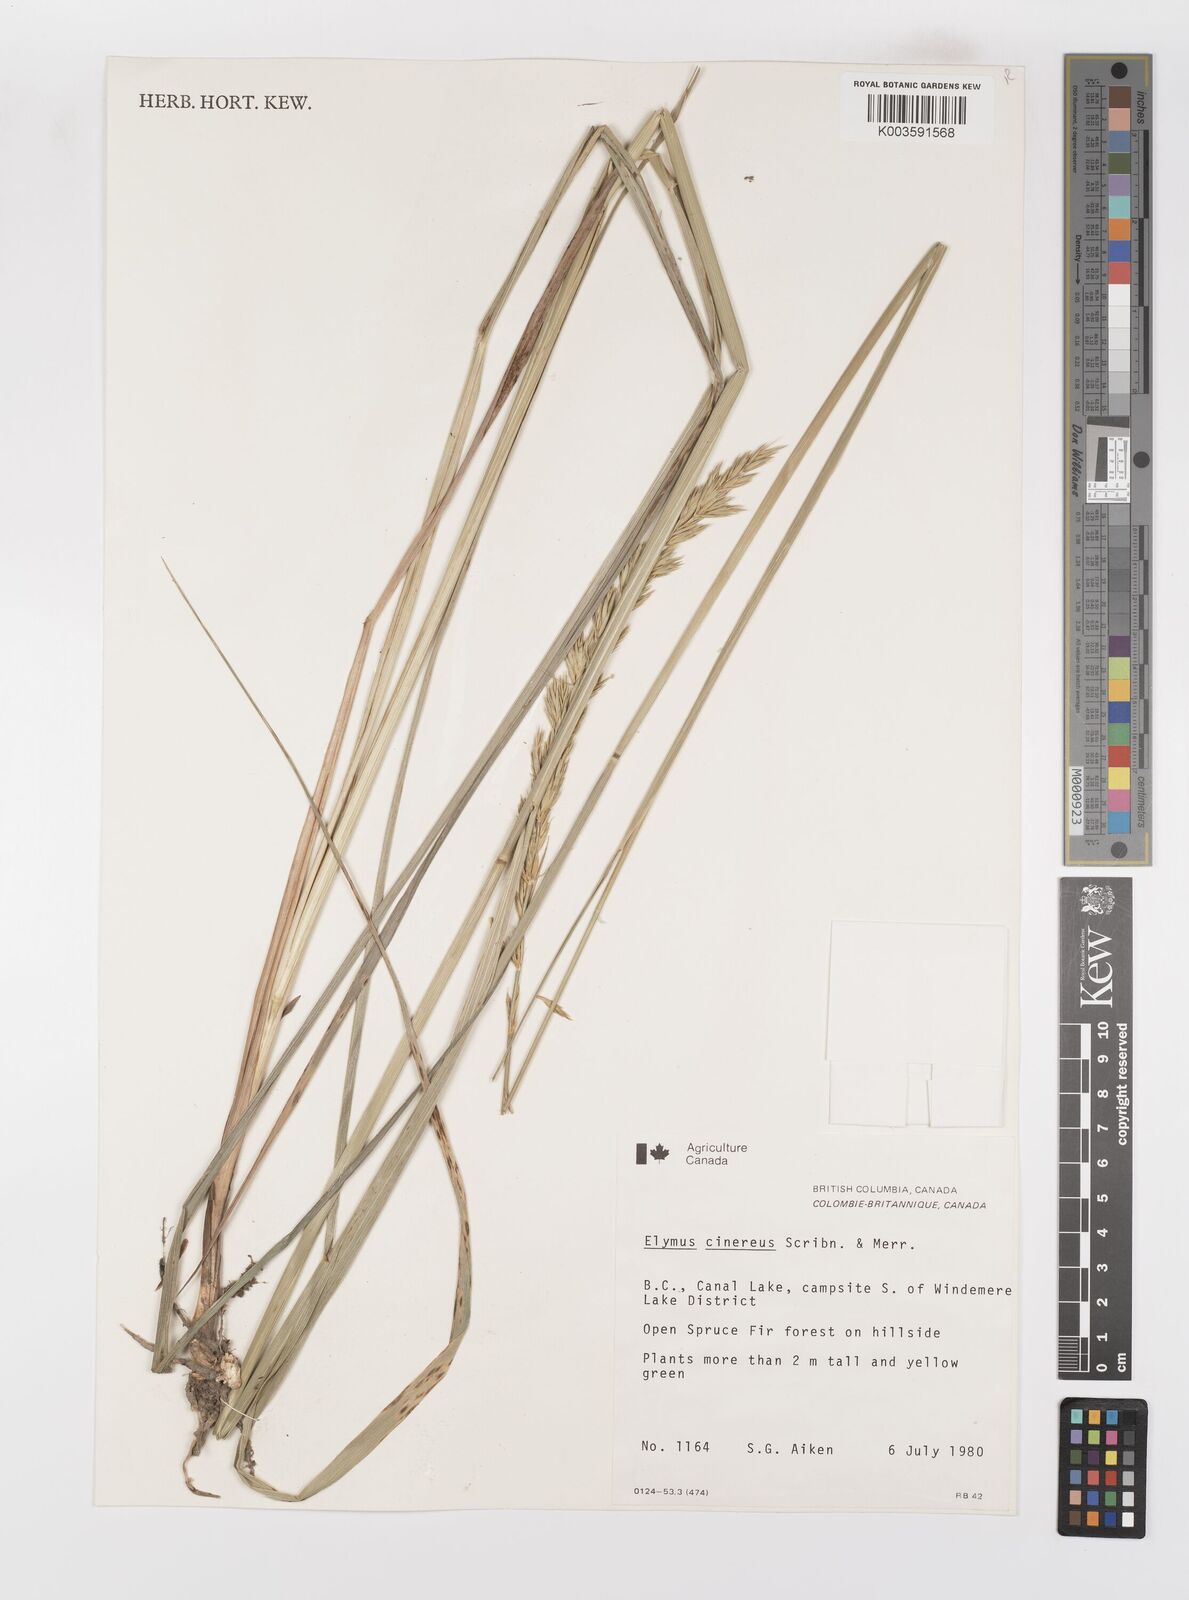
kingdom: Plantae
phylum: Tracheophyta
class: Liliopsida
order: Poales
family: Poaceae
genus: Leymus
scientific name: Leymus cinereus
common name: Basin wild rye
